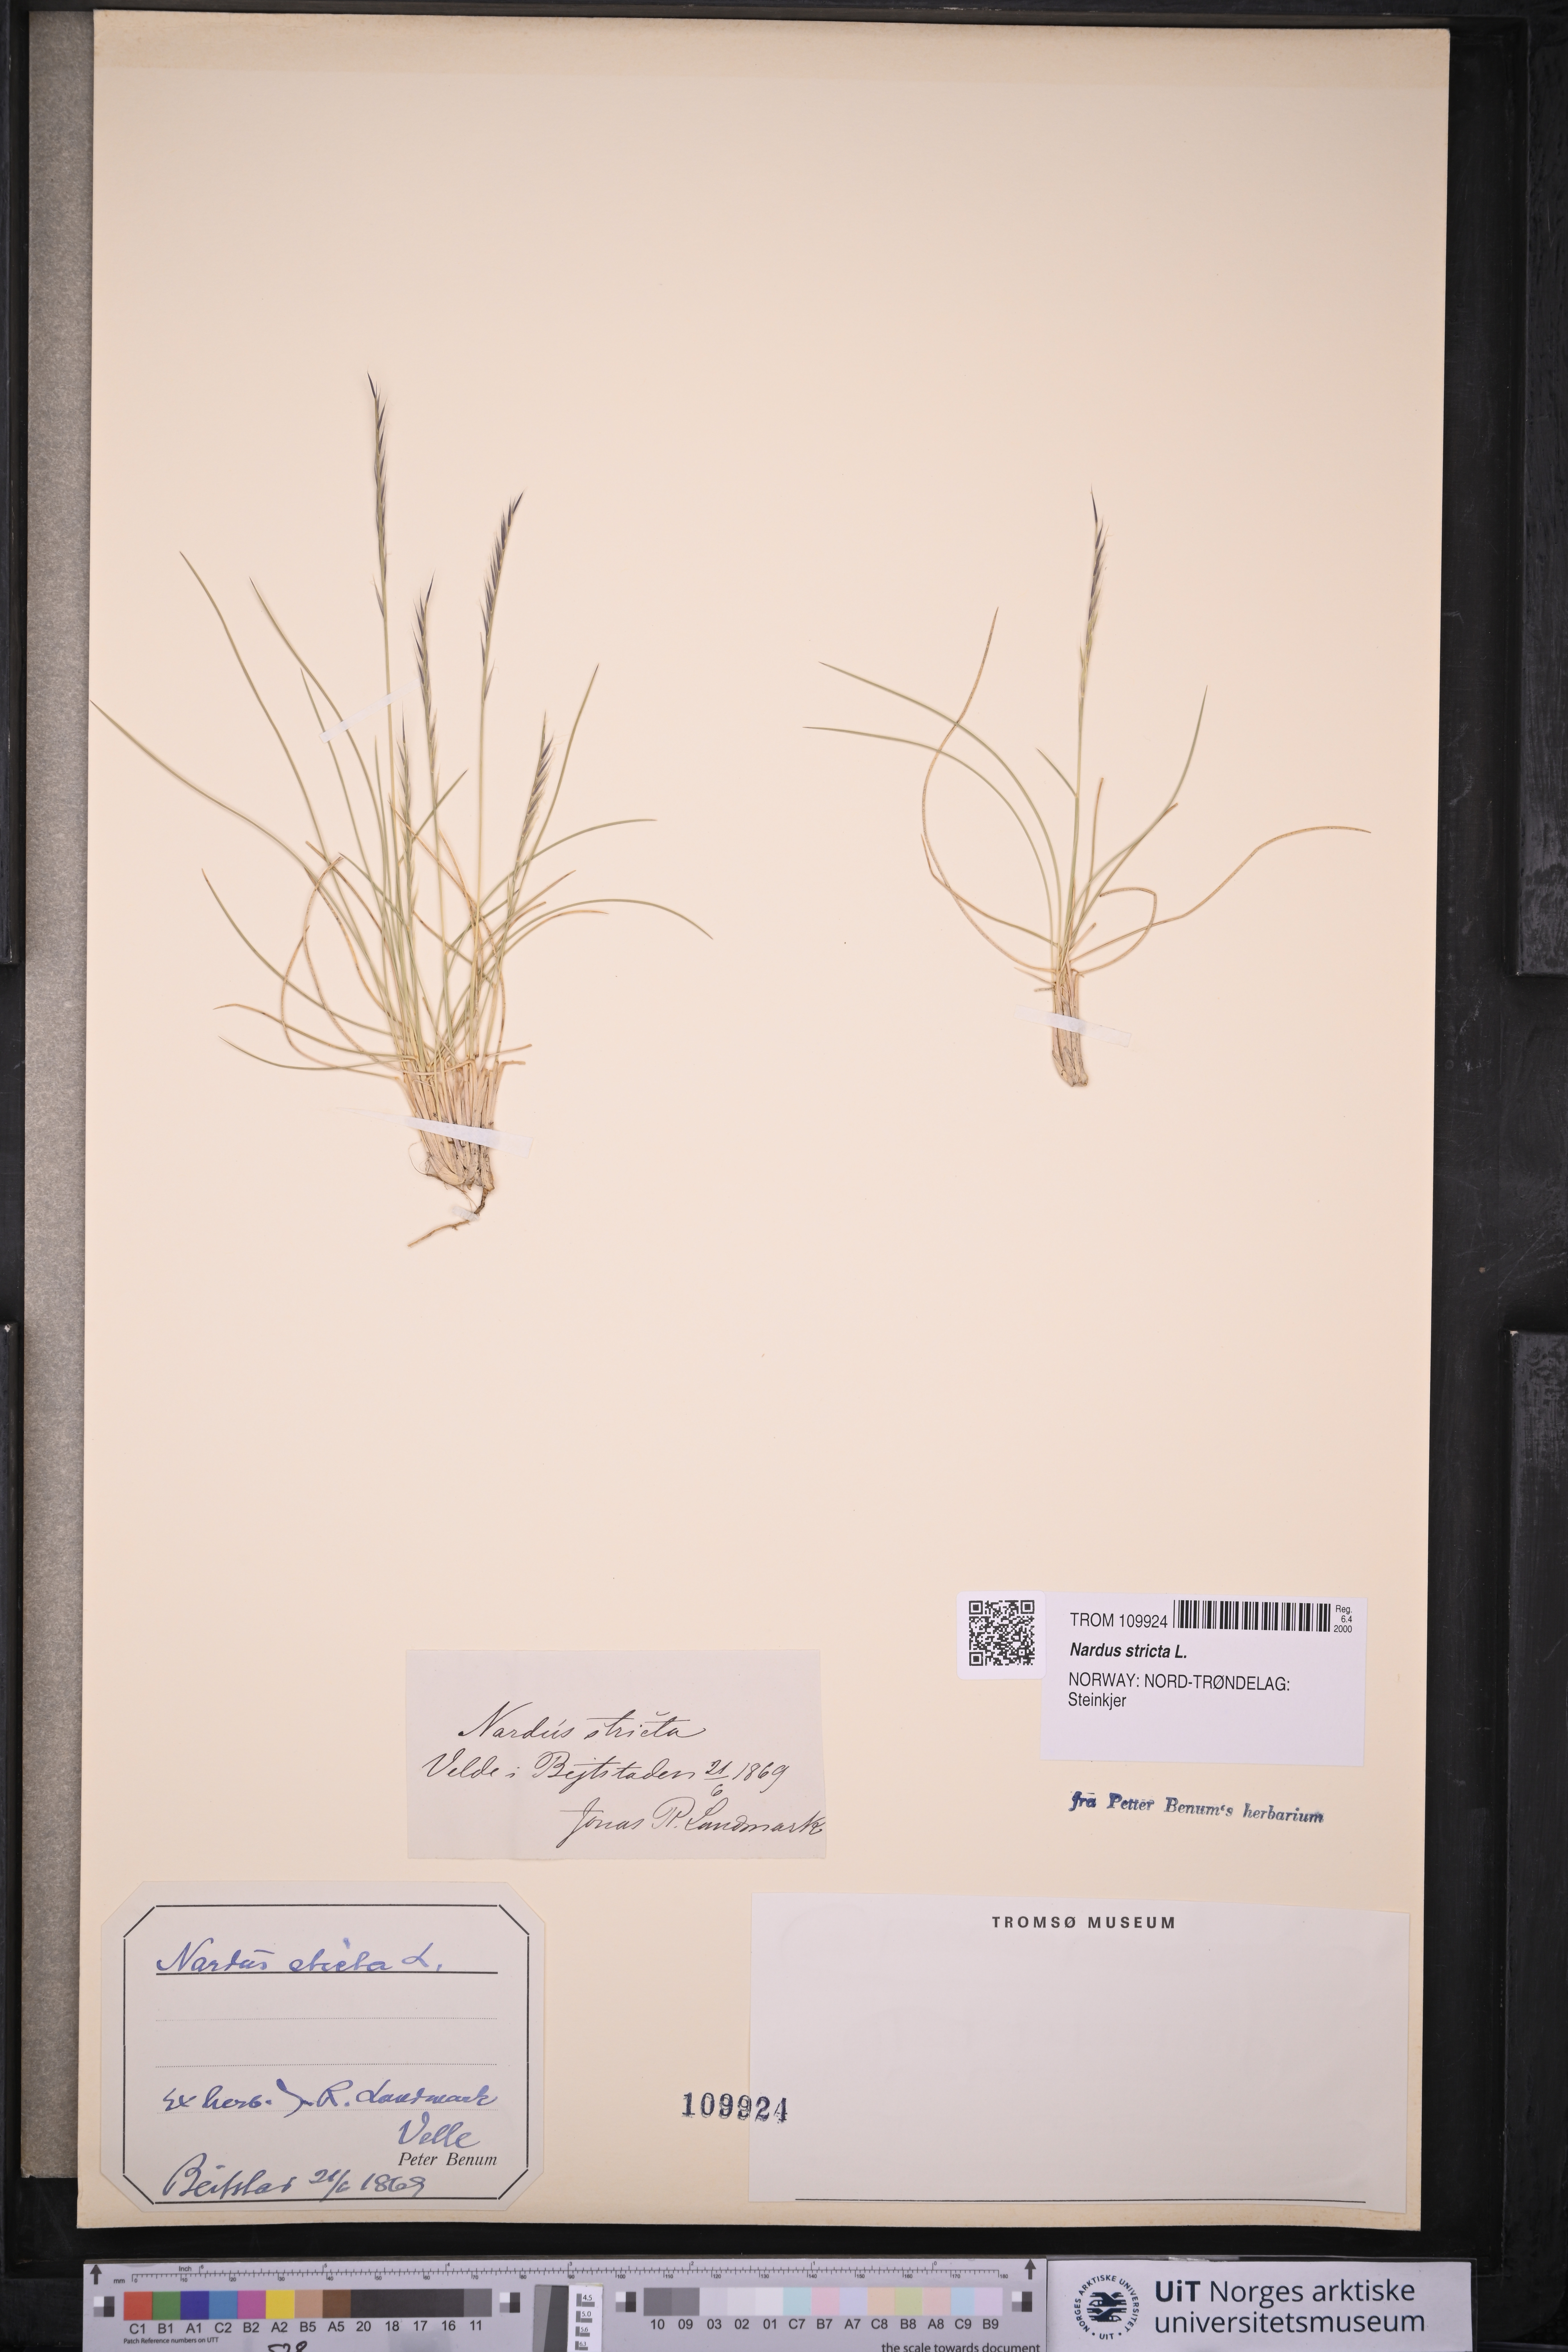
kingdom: Plantae
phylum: Tracheophyta
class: Liliopsida
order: Poales
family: Poaceae
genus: Nardus
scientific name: Nardus stricta
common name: Mat-grass
